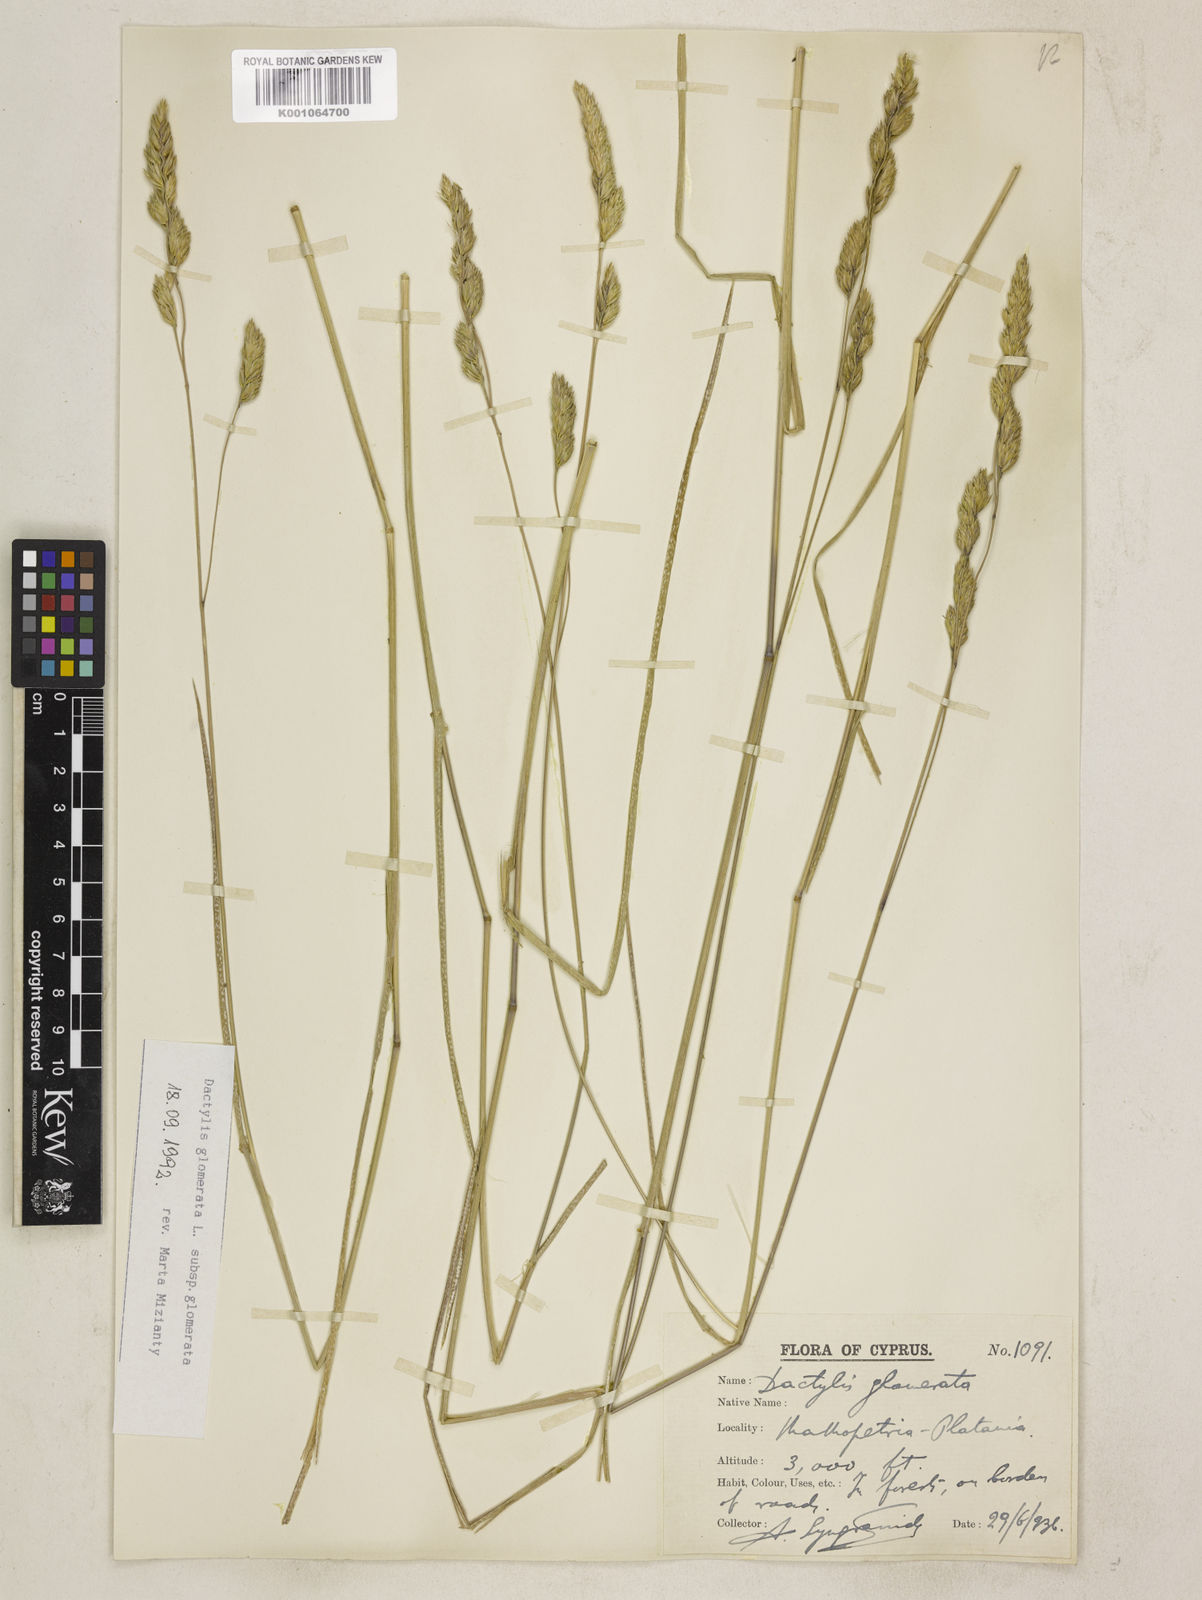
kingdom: Plantae
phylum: Tracheophyta
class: Liliopsida
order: Poales
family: Poaceae
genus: Dactylis
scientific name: Dactylis glomerata
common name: Orchardgrass
